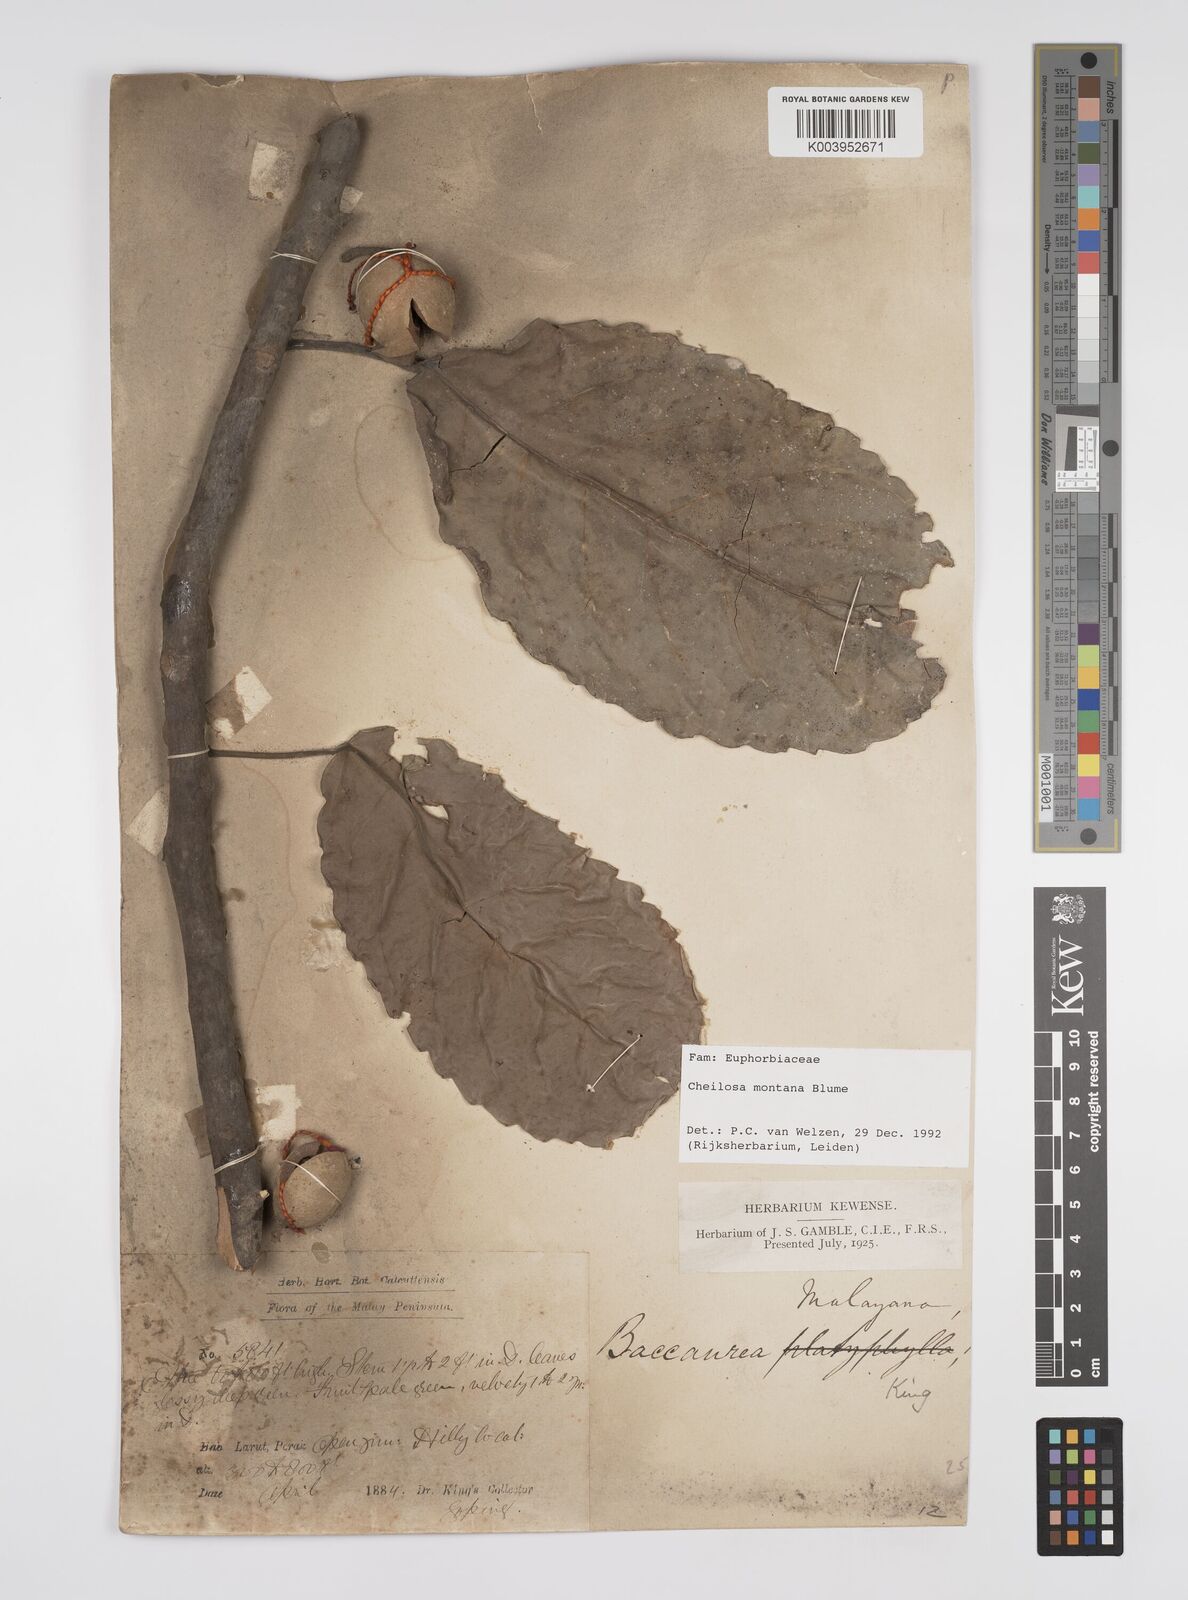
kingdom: Plantae
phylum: Tracheophyta
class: Magnoliopsida
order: Malpighiales
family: Euphorbiaceae
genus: Cheilosa
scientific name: Cheilosa montana
